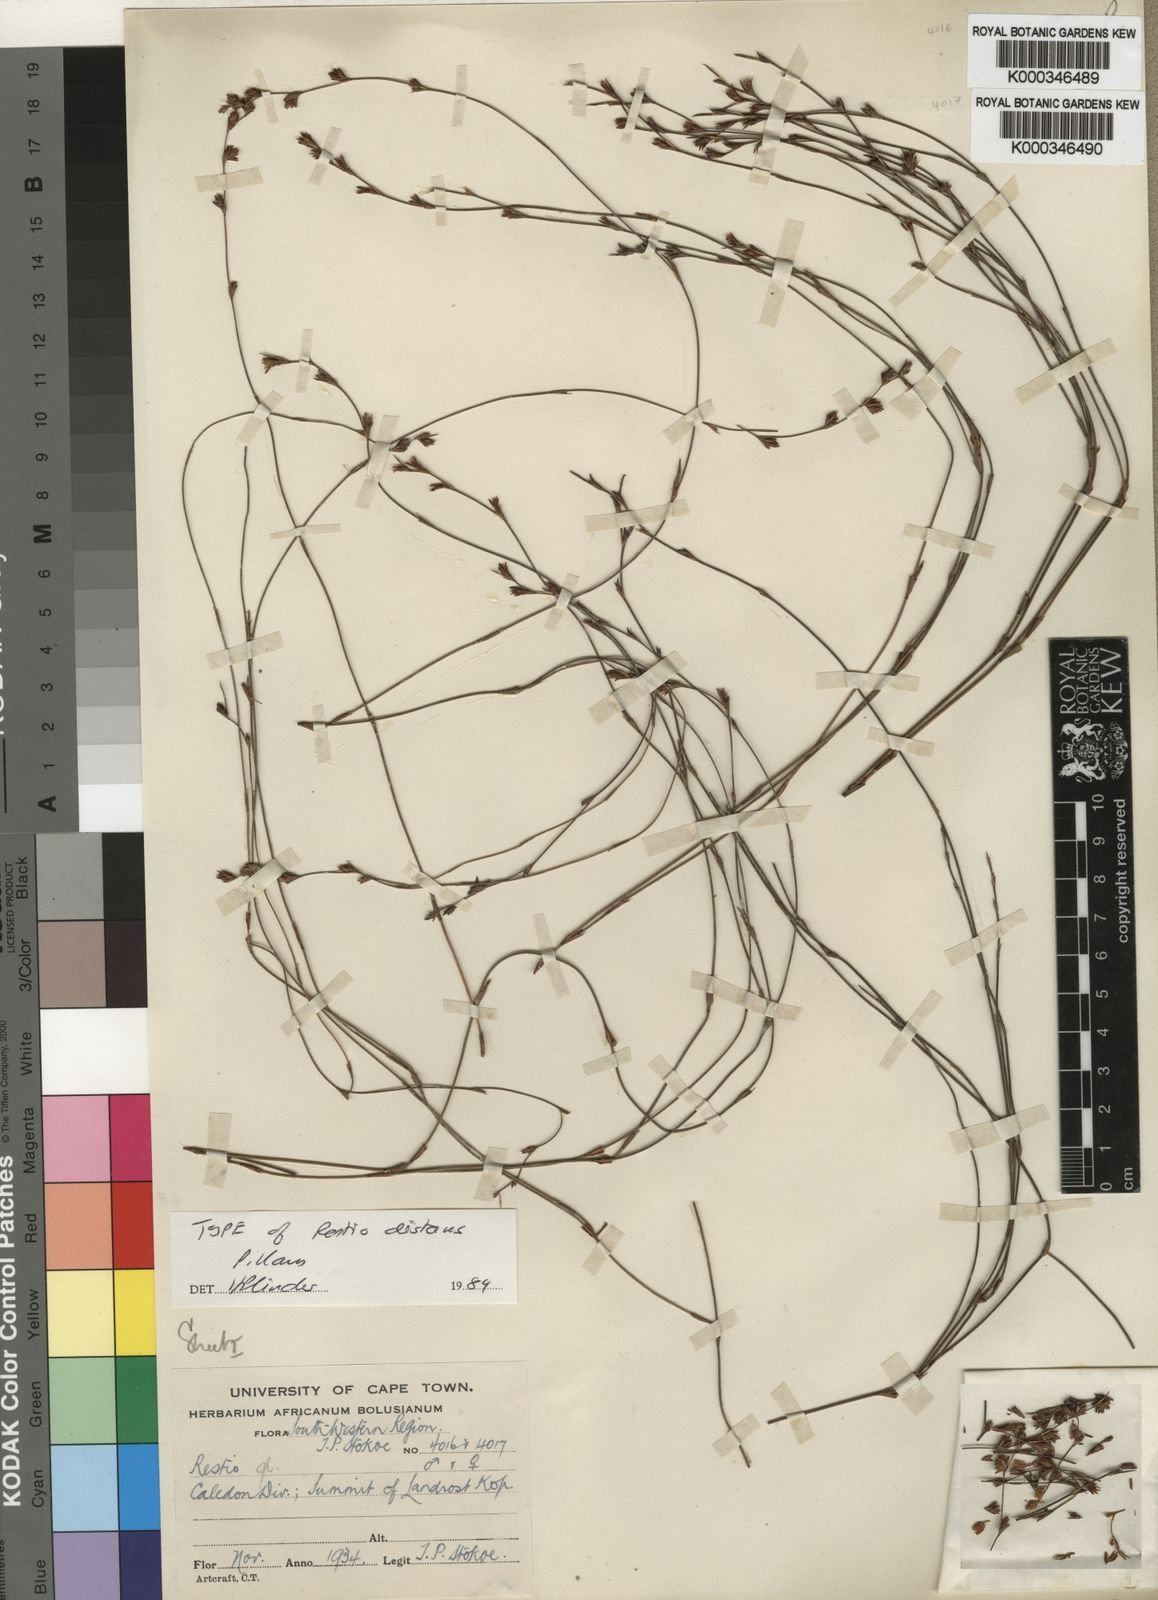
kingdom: Plantae
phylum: Tracheophyta
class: Liliopsida
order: Poales
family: Restionaceae
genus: Restio
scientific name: Restio distans
